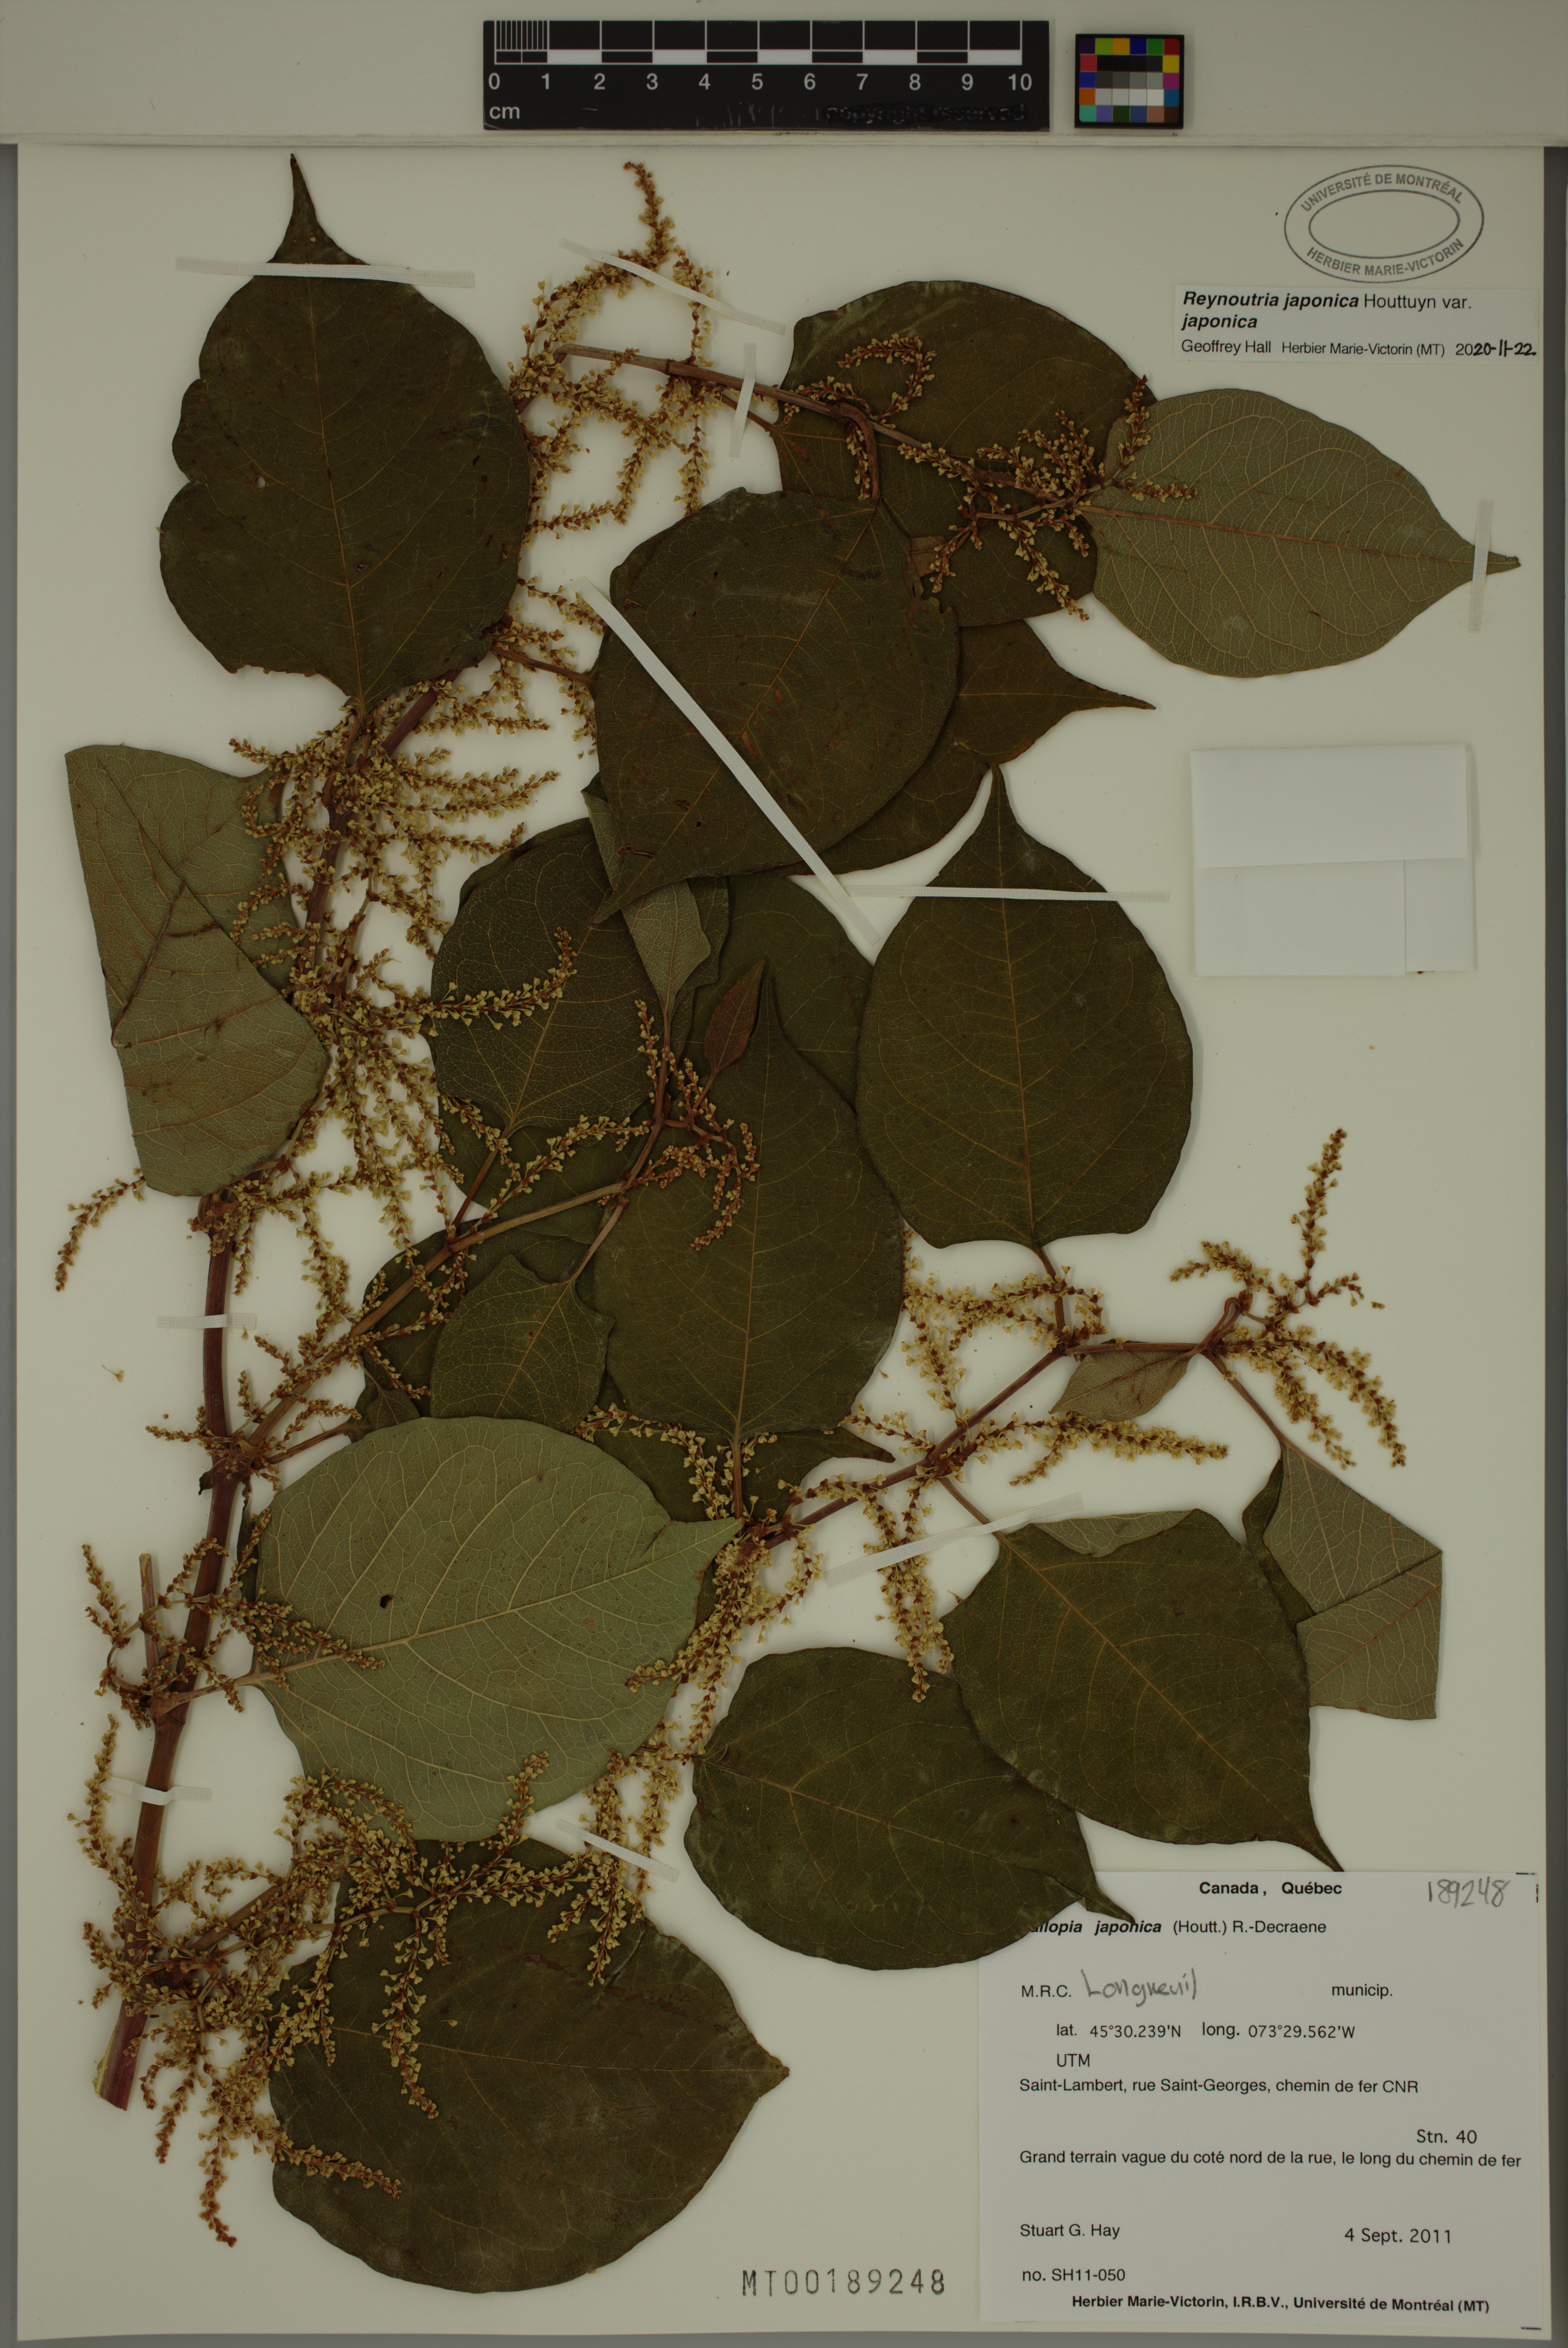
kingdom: Plantae
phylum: Tracheophyta
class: Magnoliopsida
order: Caryophyllales
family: Polygonaceae
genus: Reynoutria
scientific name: Reynoutria japonica
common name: Japanese knotweed
